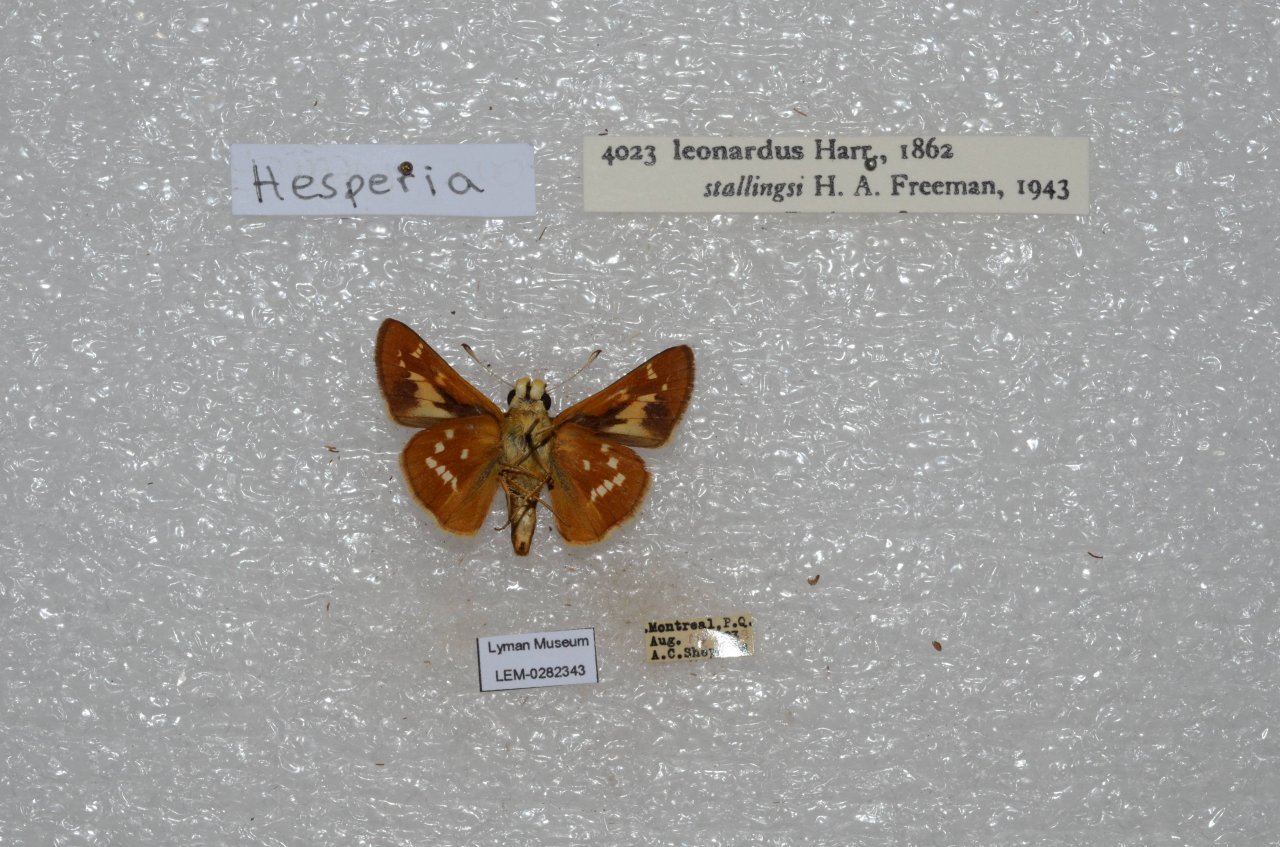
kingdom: Animalia
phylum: Arthropoda
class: Insecta
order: Lepidoptera
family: Hesperiidae
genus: Hesperia
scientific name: Hesperia leonardus
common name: Leonard's Skipper
